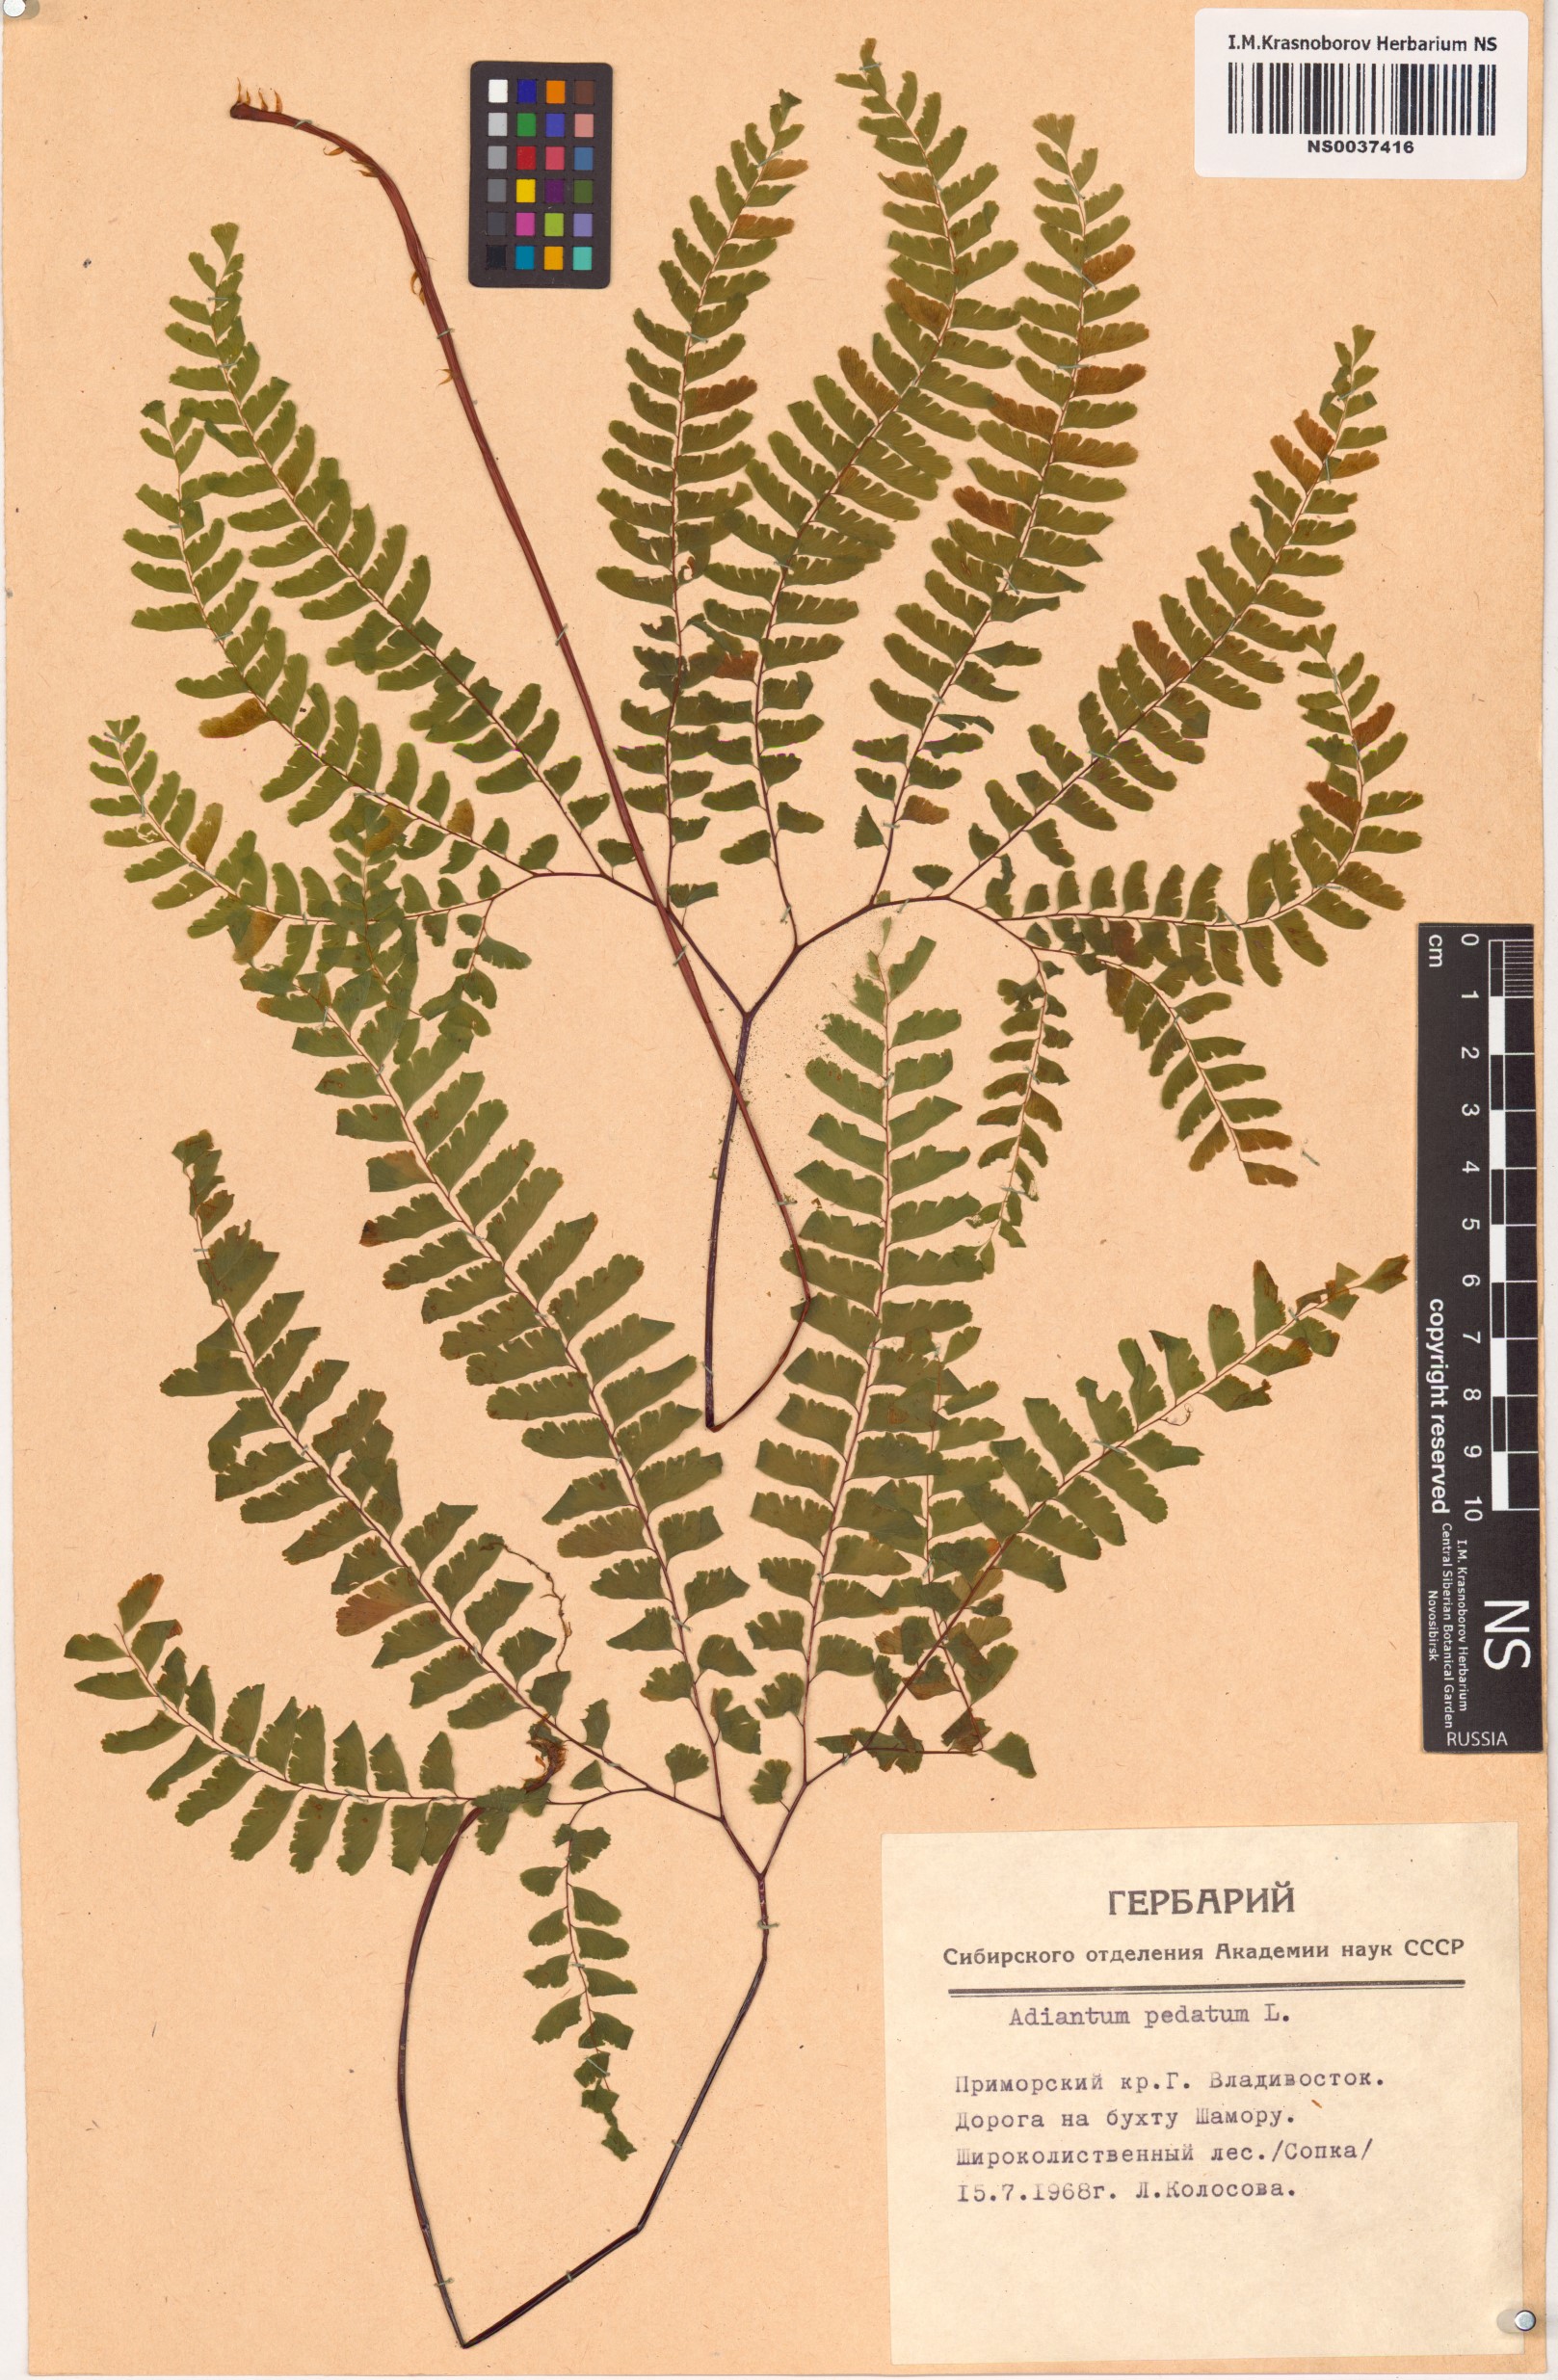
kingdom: Plantae
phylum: Tracheophyta
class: Polypodiopsida
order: Polypodiales
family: Pteridaceae
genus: Adiantum
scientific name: Adiantum pedatum
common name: Five-finger fern
